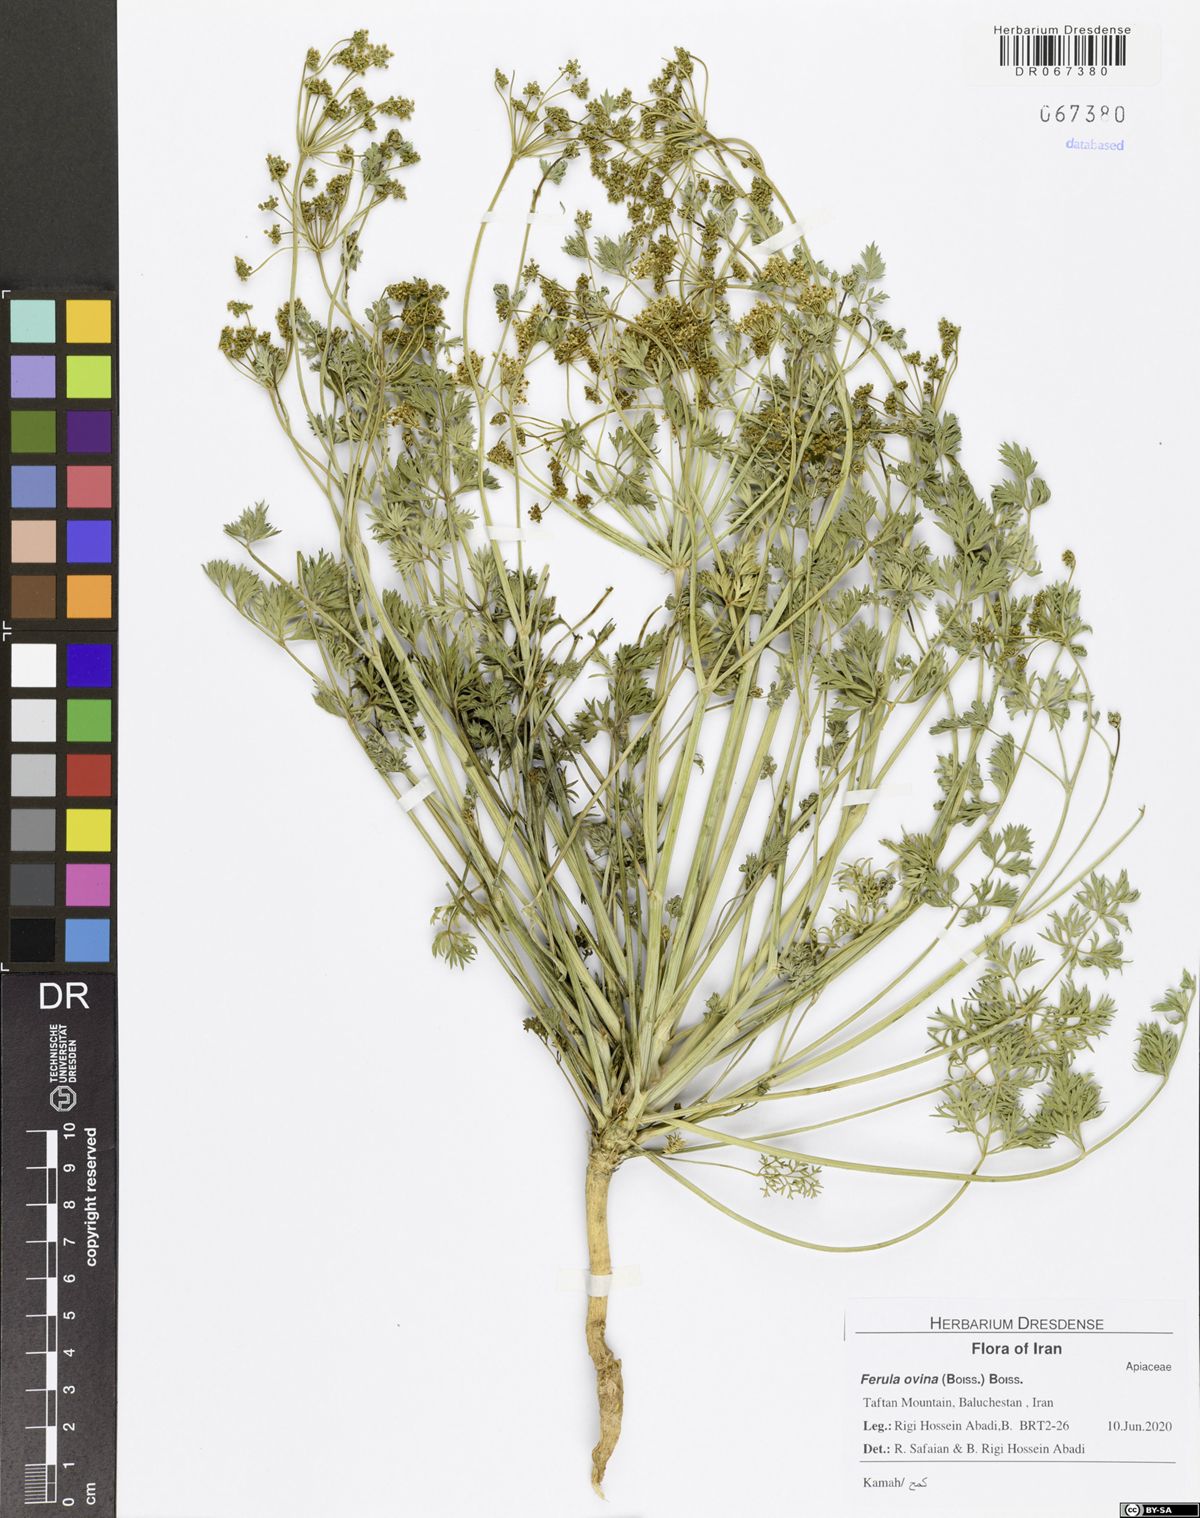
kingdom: Plantae
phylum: Tracheophyta
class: Magnoliopsida
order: Apiales
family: Apiaceae
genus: Ferula
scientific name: Ferula ovina
